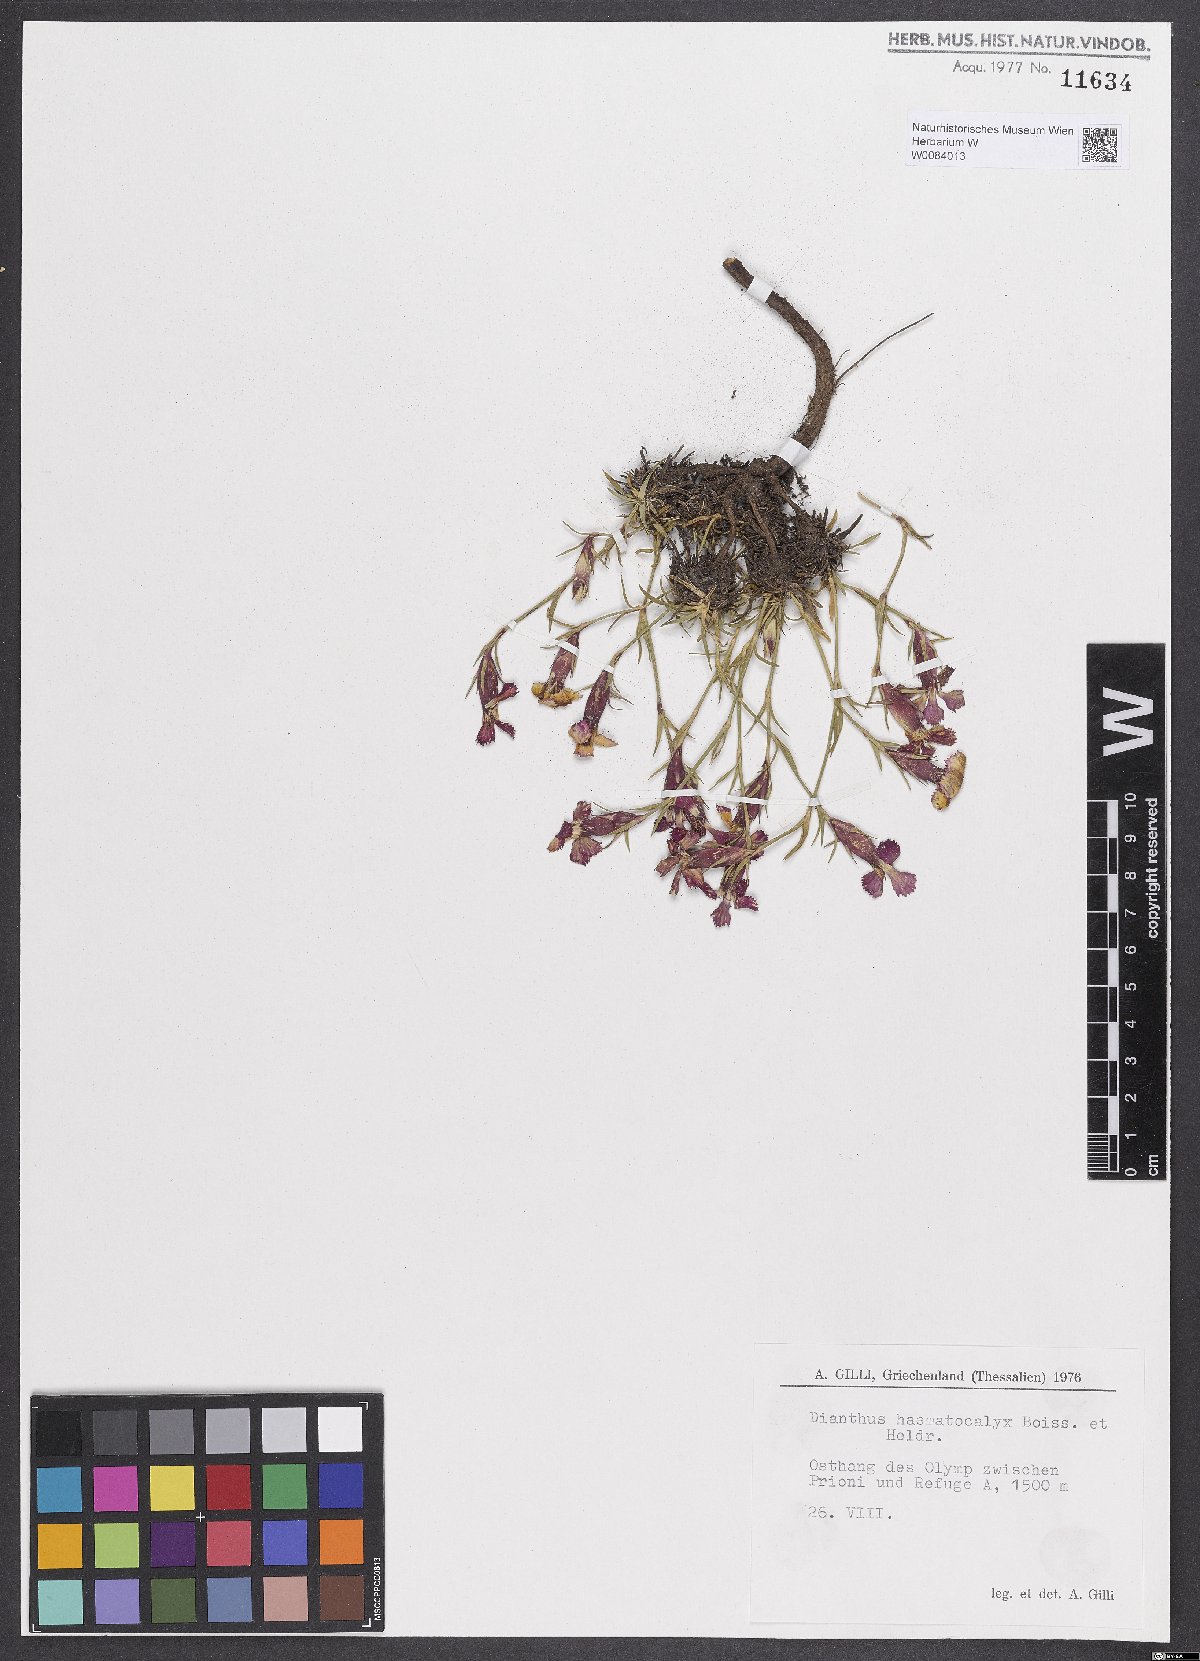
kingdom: Plantae
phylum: Tracheophyta
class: Magnoliopsida
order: Caryophyllales
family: Caryophyllaceae
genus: Dianthus
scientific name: Dianthus haematocalyx
